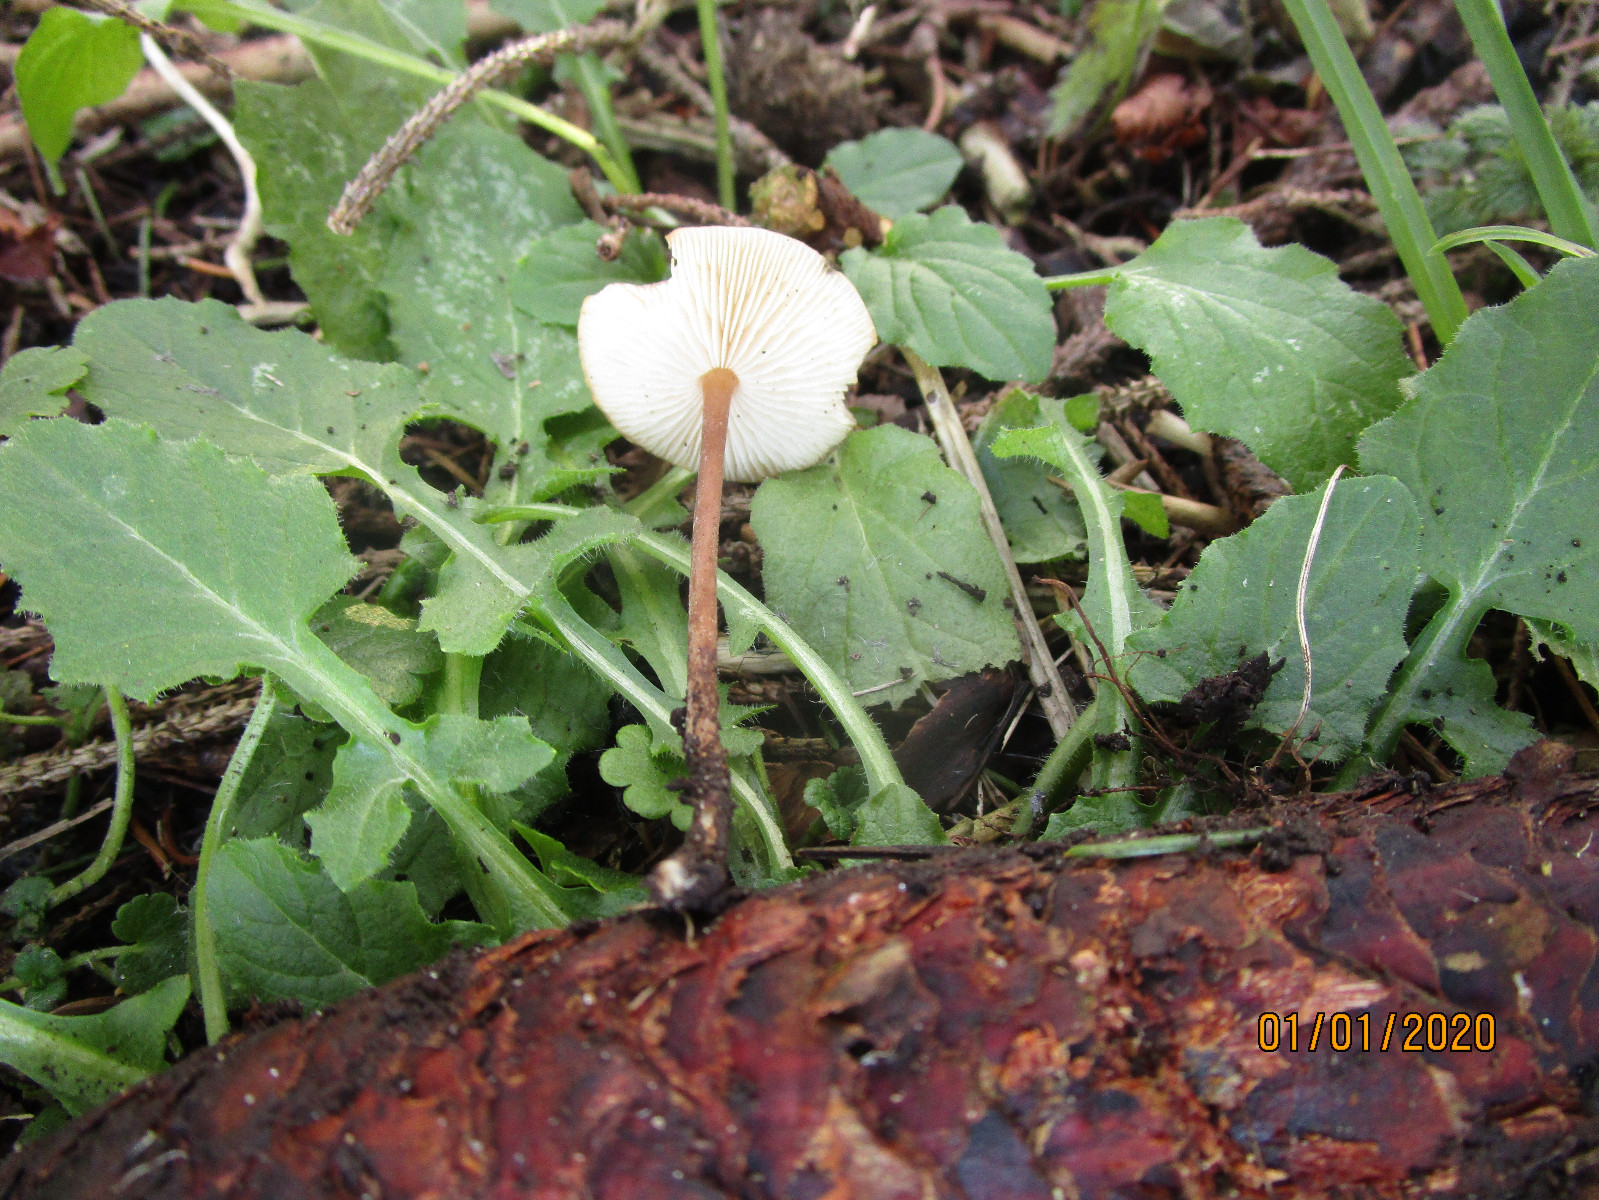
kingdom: Fungi
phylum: Basidiomycota
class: Agaricomycetes
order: Agaricales
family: Physalacriaceae
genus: Strobilurus
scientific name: Strobilurus esculentus
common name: gran-koglehat
